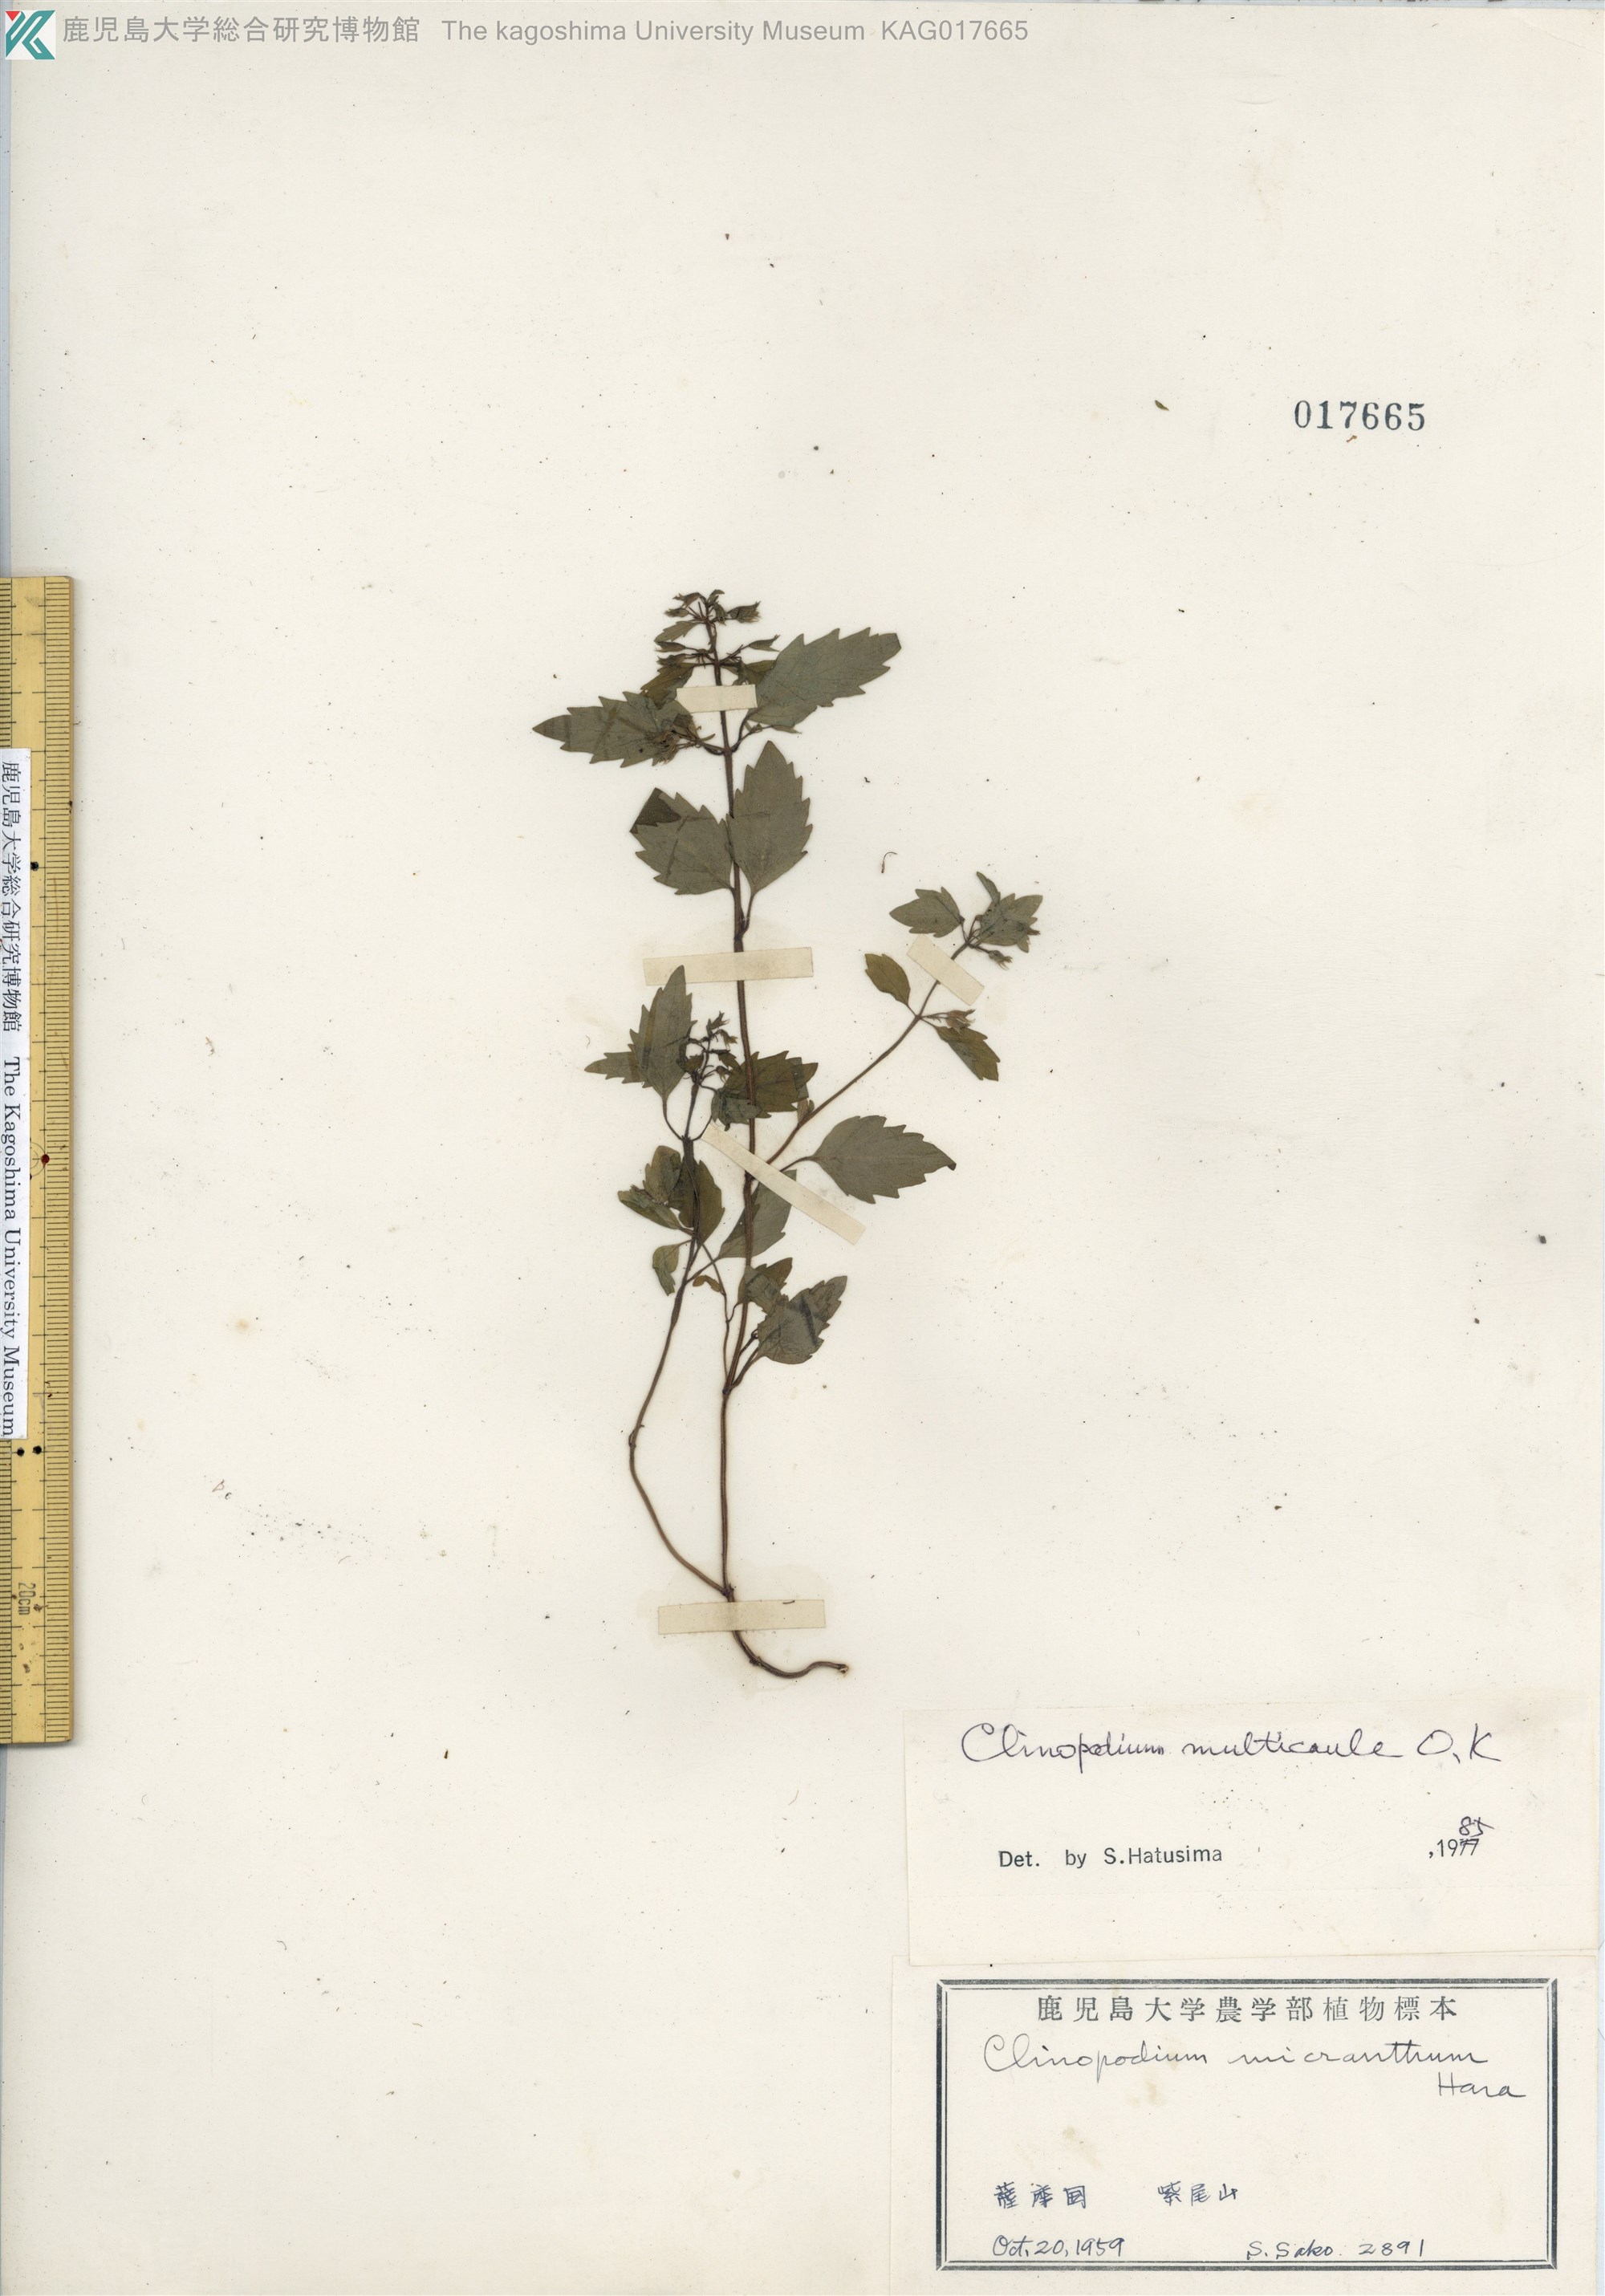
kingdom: Plantae
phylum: Tracheophyta
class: Magnoliopsida
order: Lamiales
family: Lamiaceae
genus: Clinopodium
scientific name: Clinopodium multicaule
